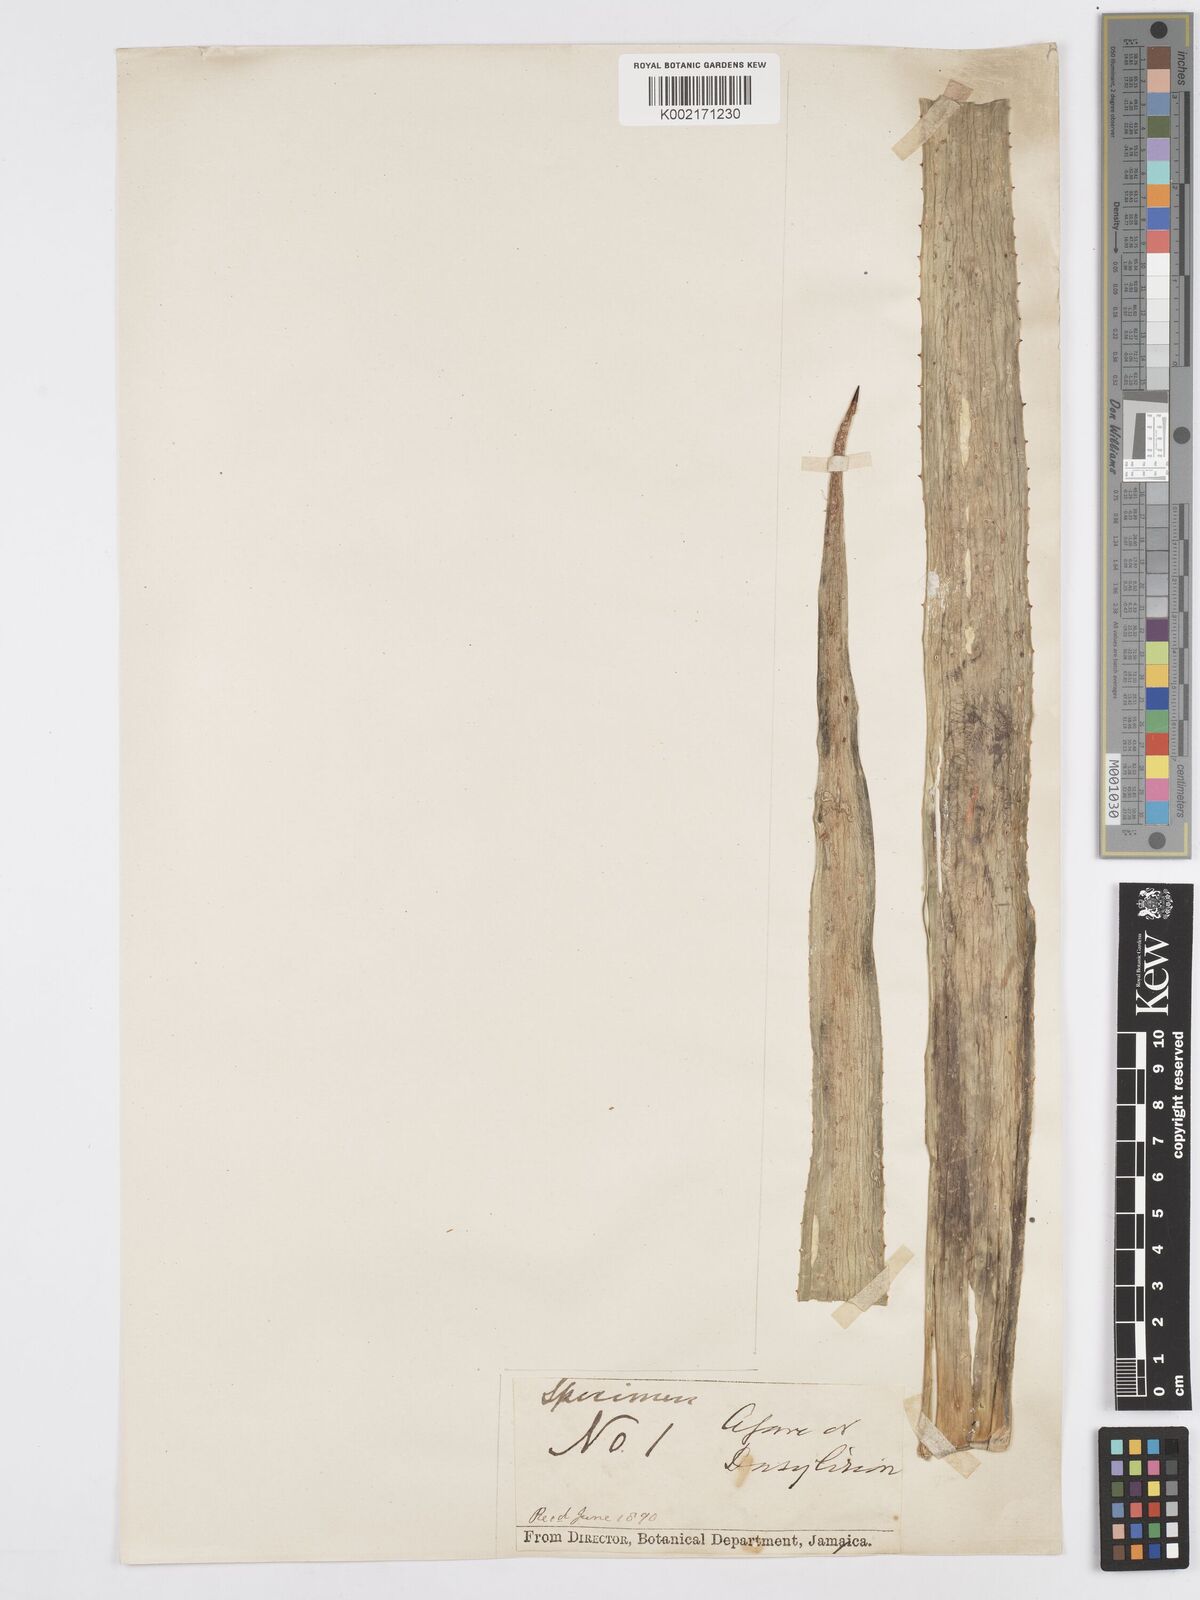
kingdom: Plantae
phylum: Tracheophyta
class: Liliopsida
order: Asparagales
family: Asparagaceae
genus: Agave
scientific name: Agave
